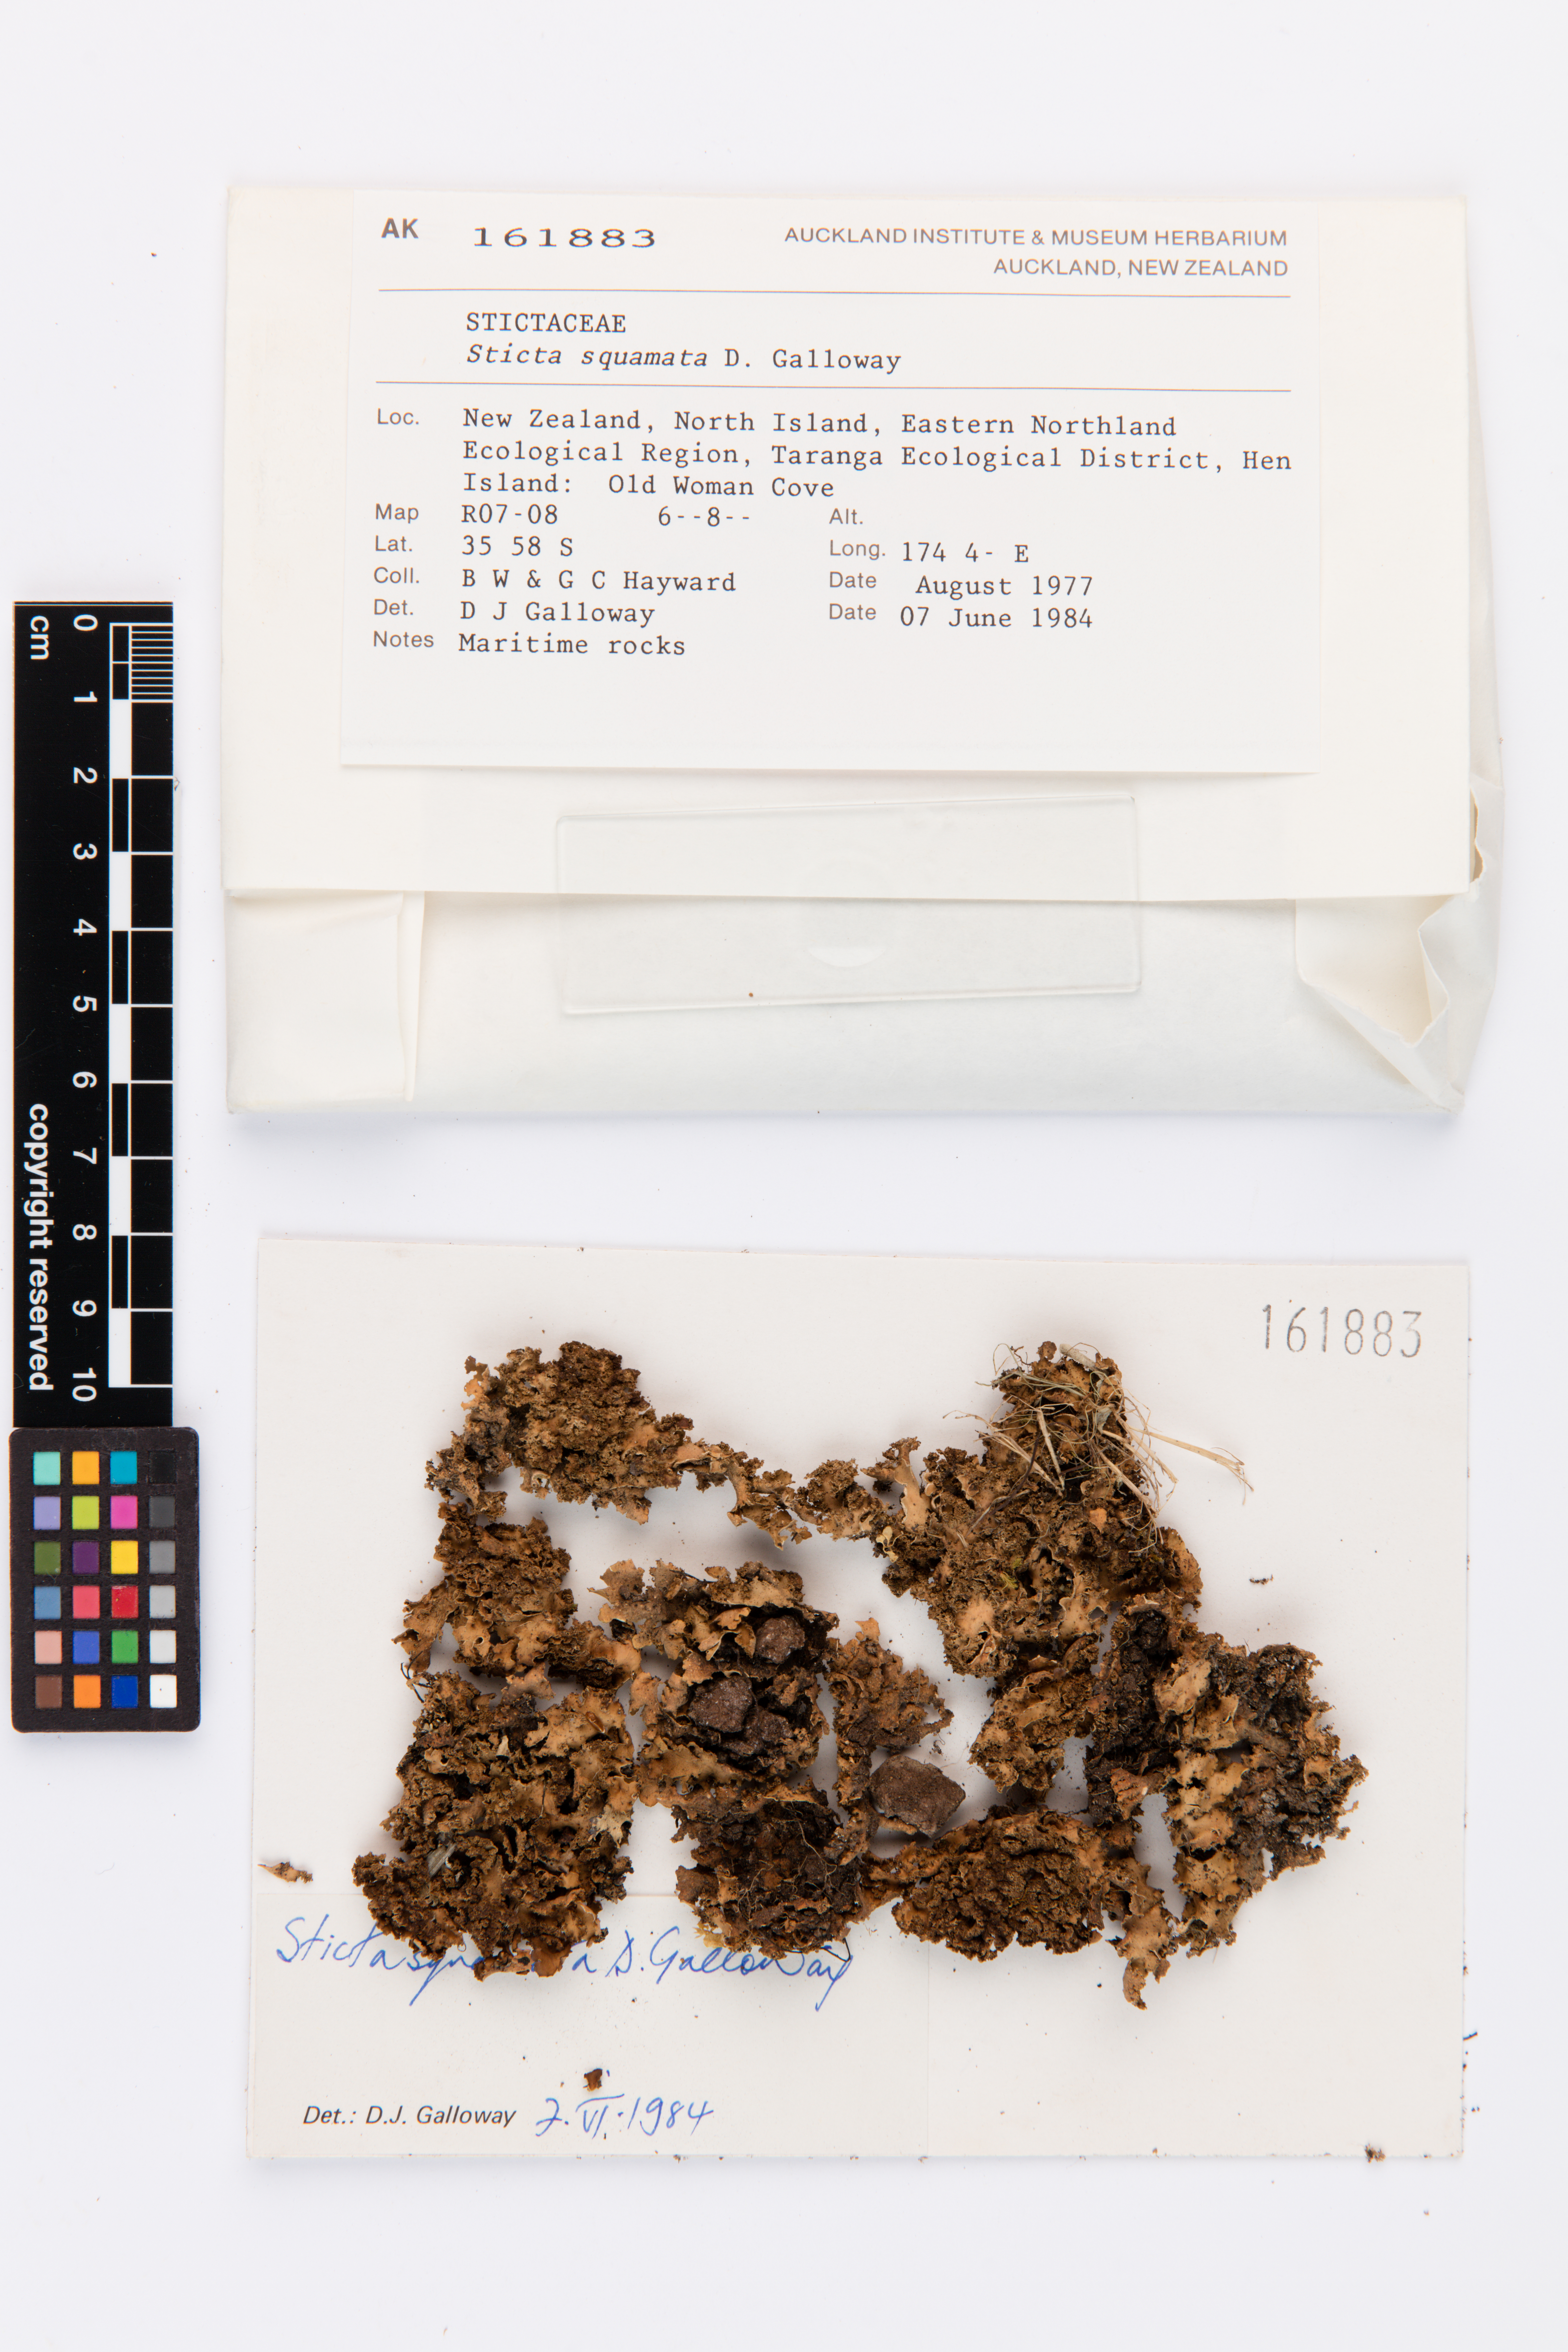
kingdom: Fungi
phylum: Ascomycota
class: Lecanoromycetes
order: Peltigerales
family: Lobariaceae
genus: Sticta
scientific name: Sticta squamata
